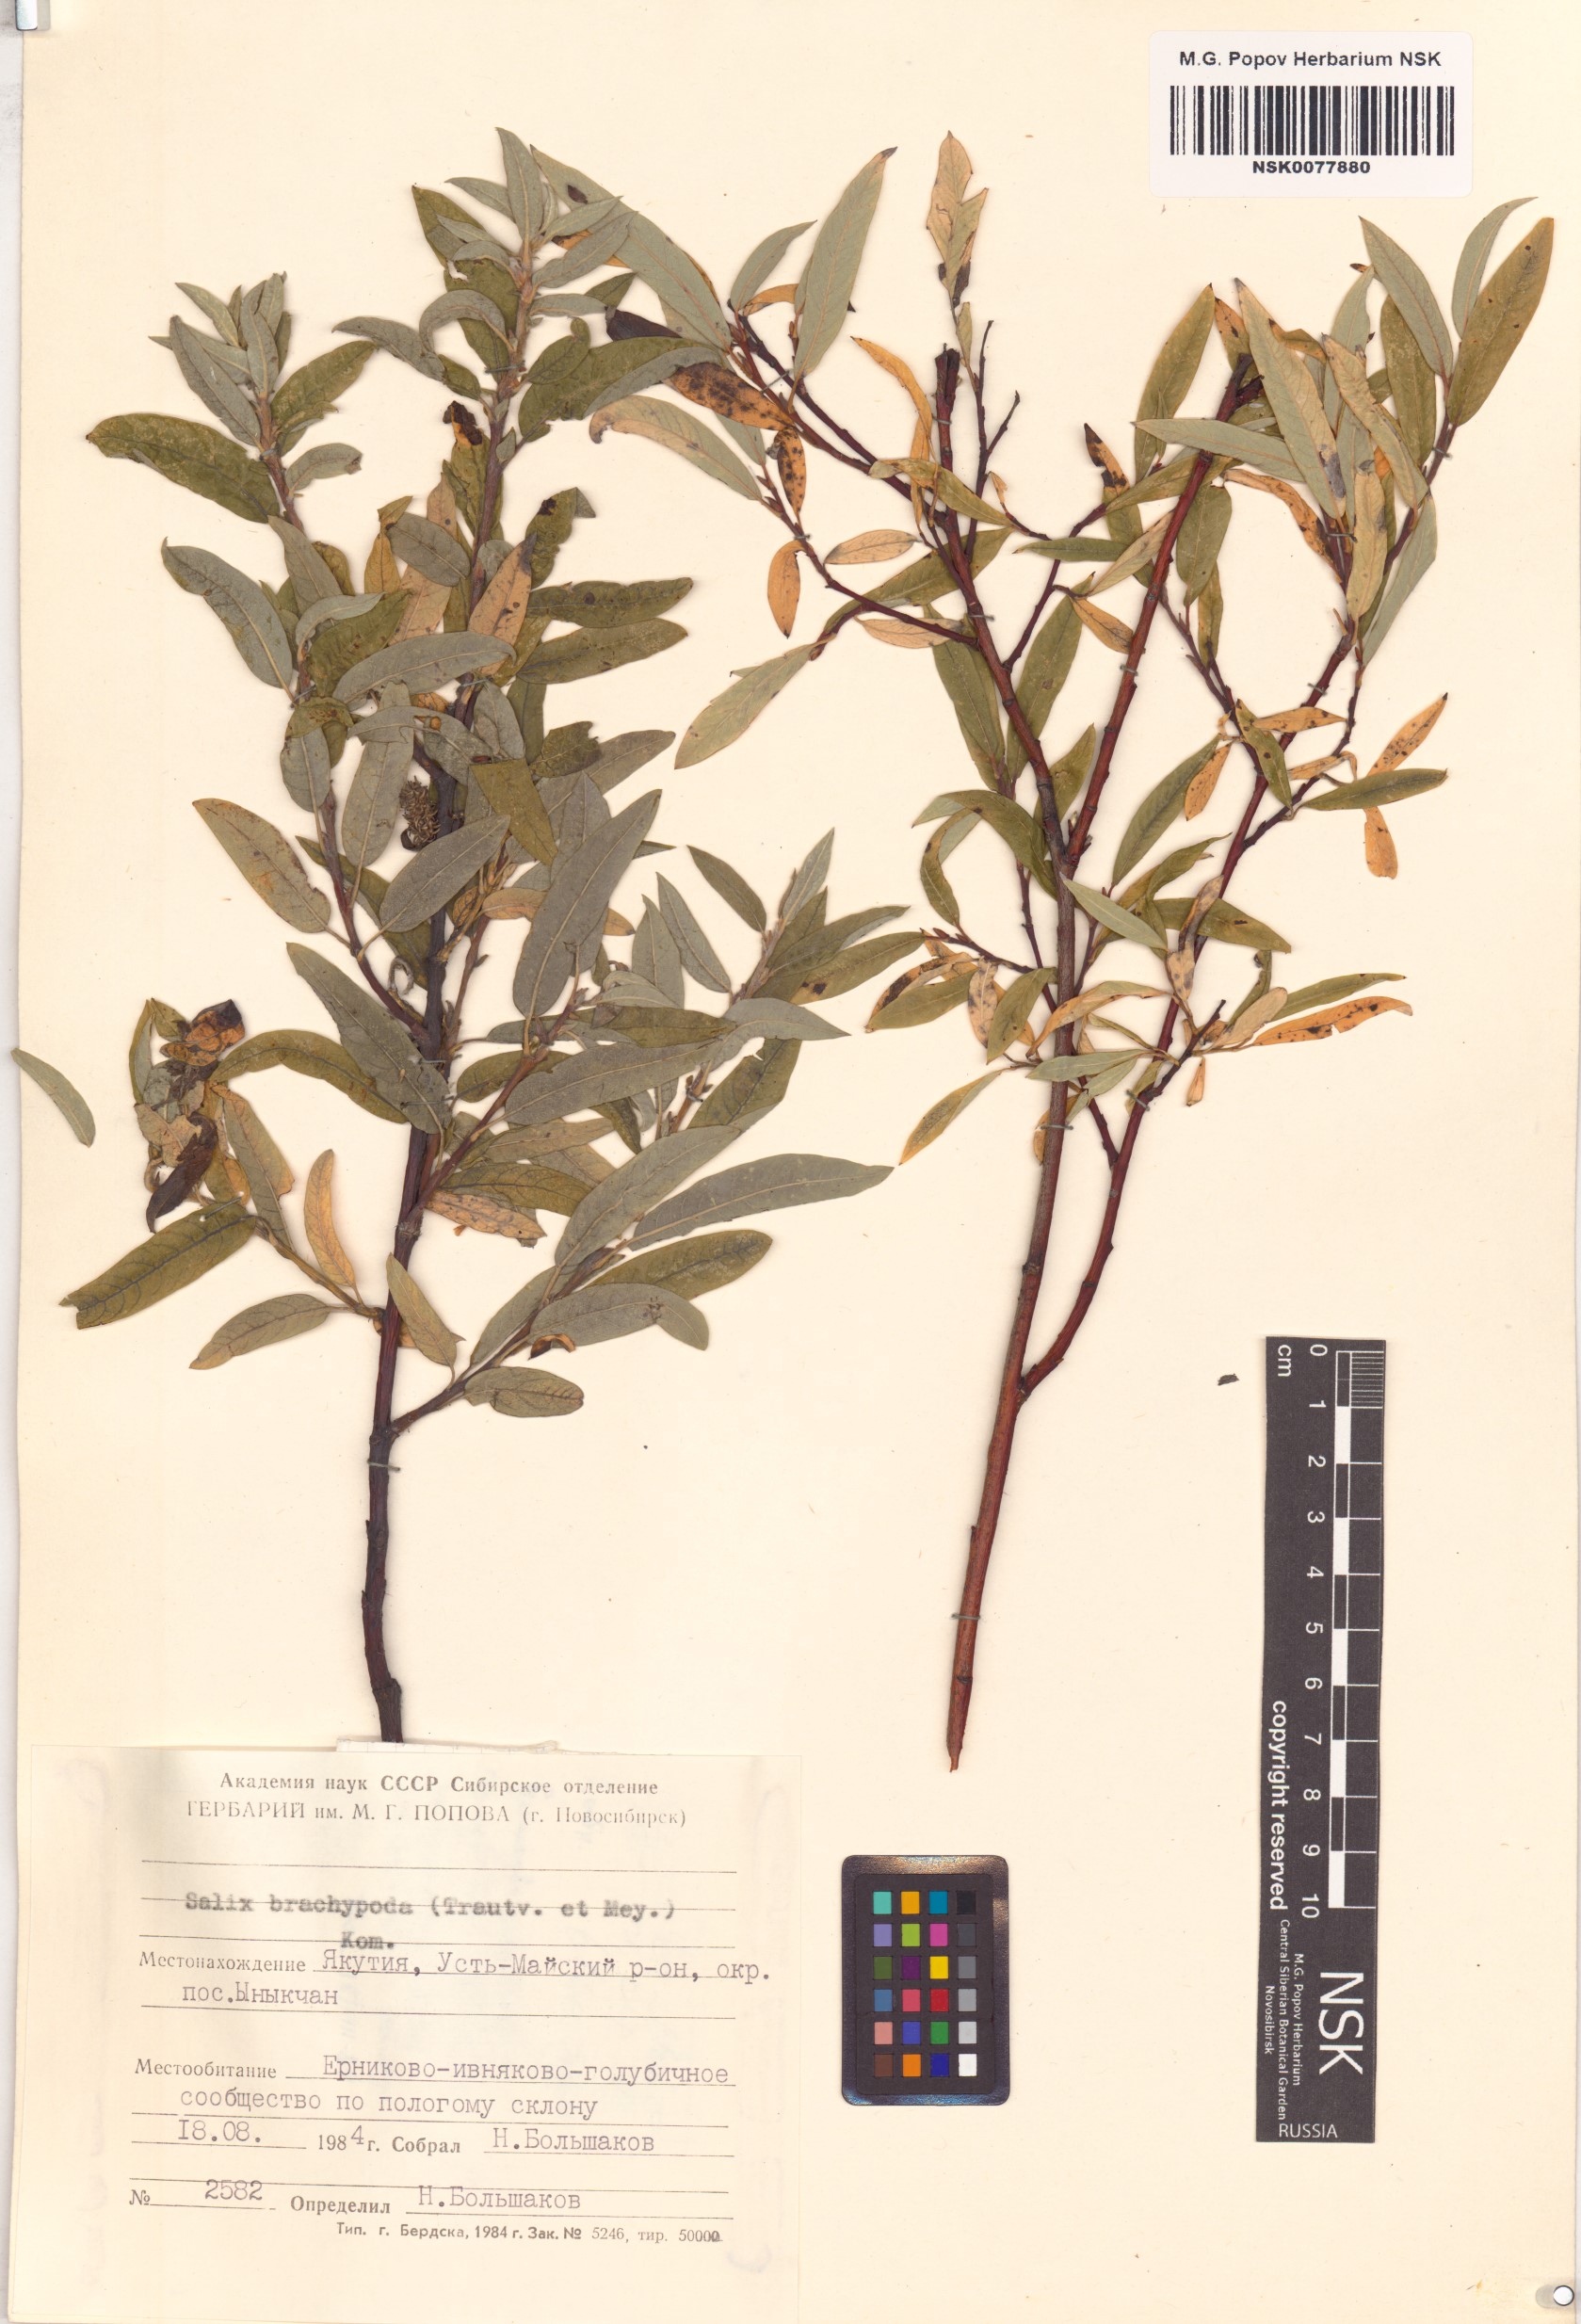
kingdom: Plantae
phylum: Tracheophyta
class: Magnoliopsida
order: Malpighiales
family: Salicaceae
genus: Salix
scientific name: Salix brachypoda
